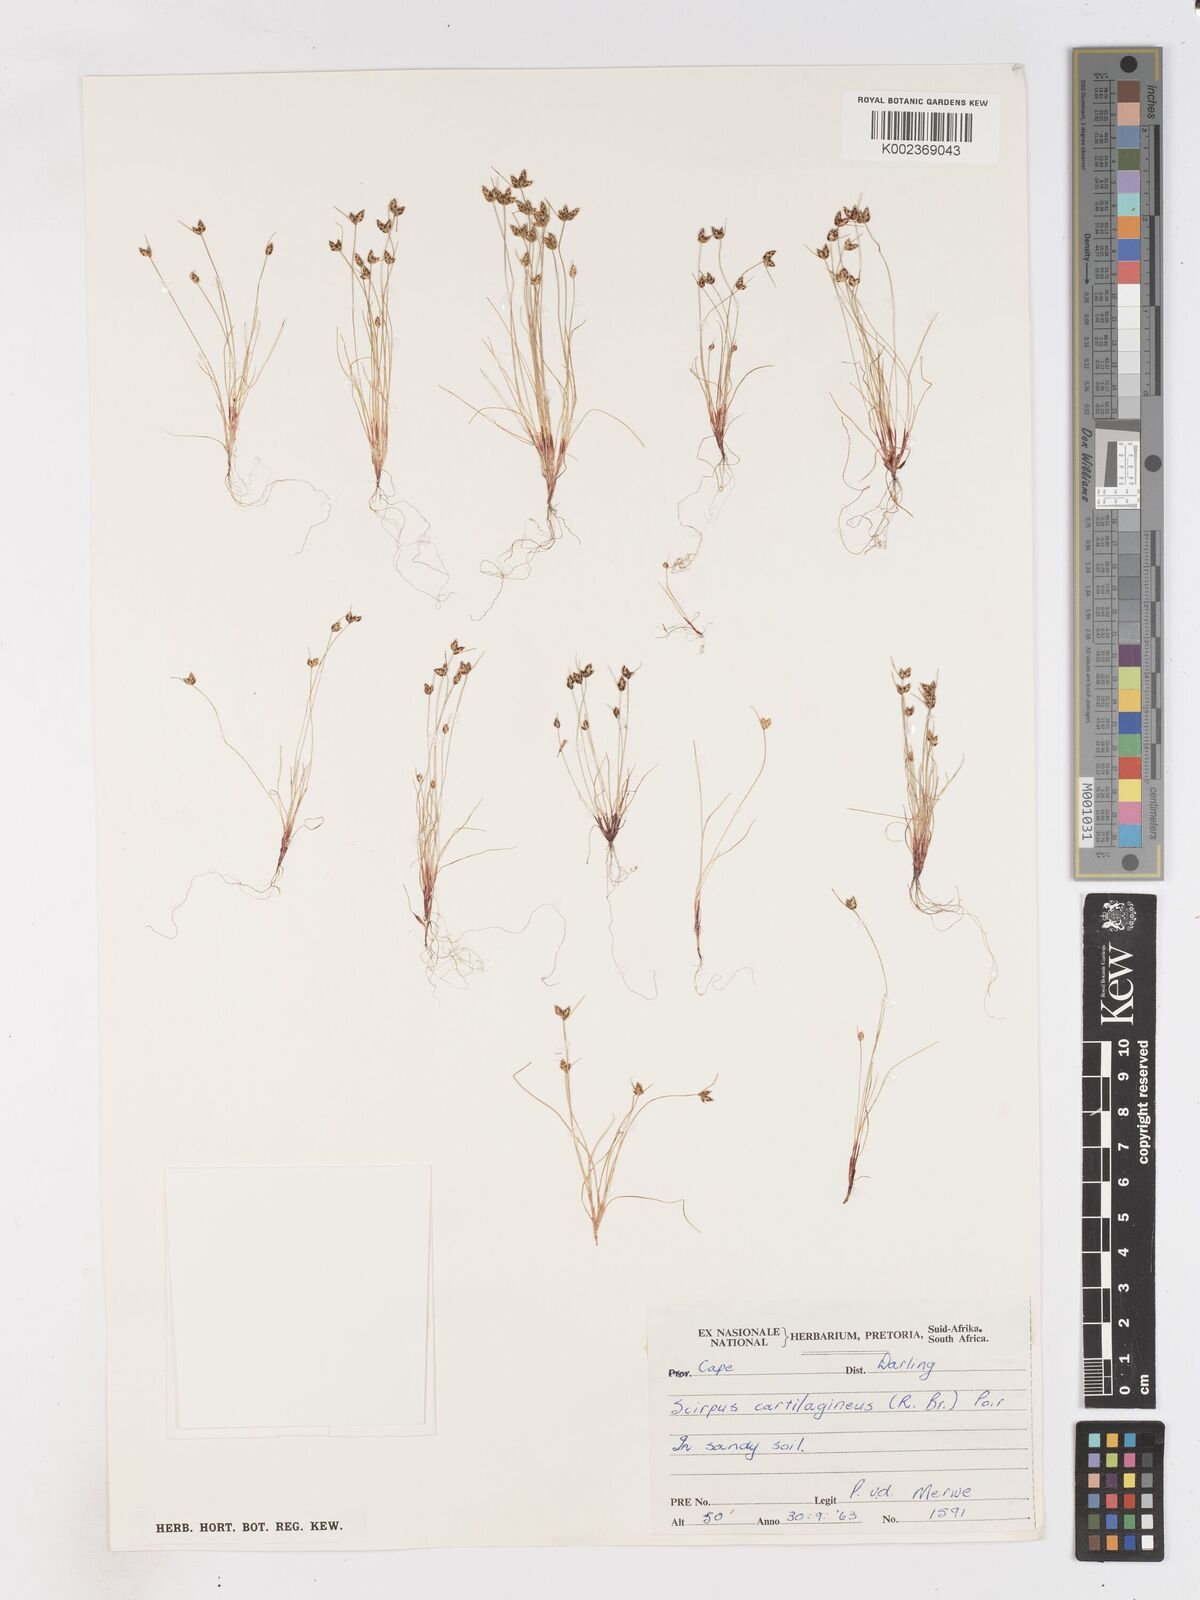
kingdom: Plantae
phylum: Tracheophyta
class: Liliopsida
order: Poales
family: Cyperaceae
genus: Isolepis
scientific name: Isolepis diabolica
